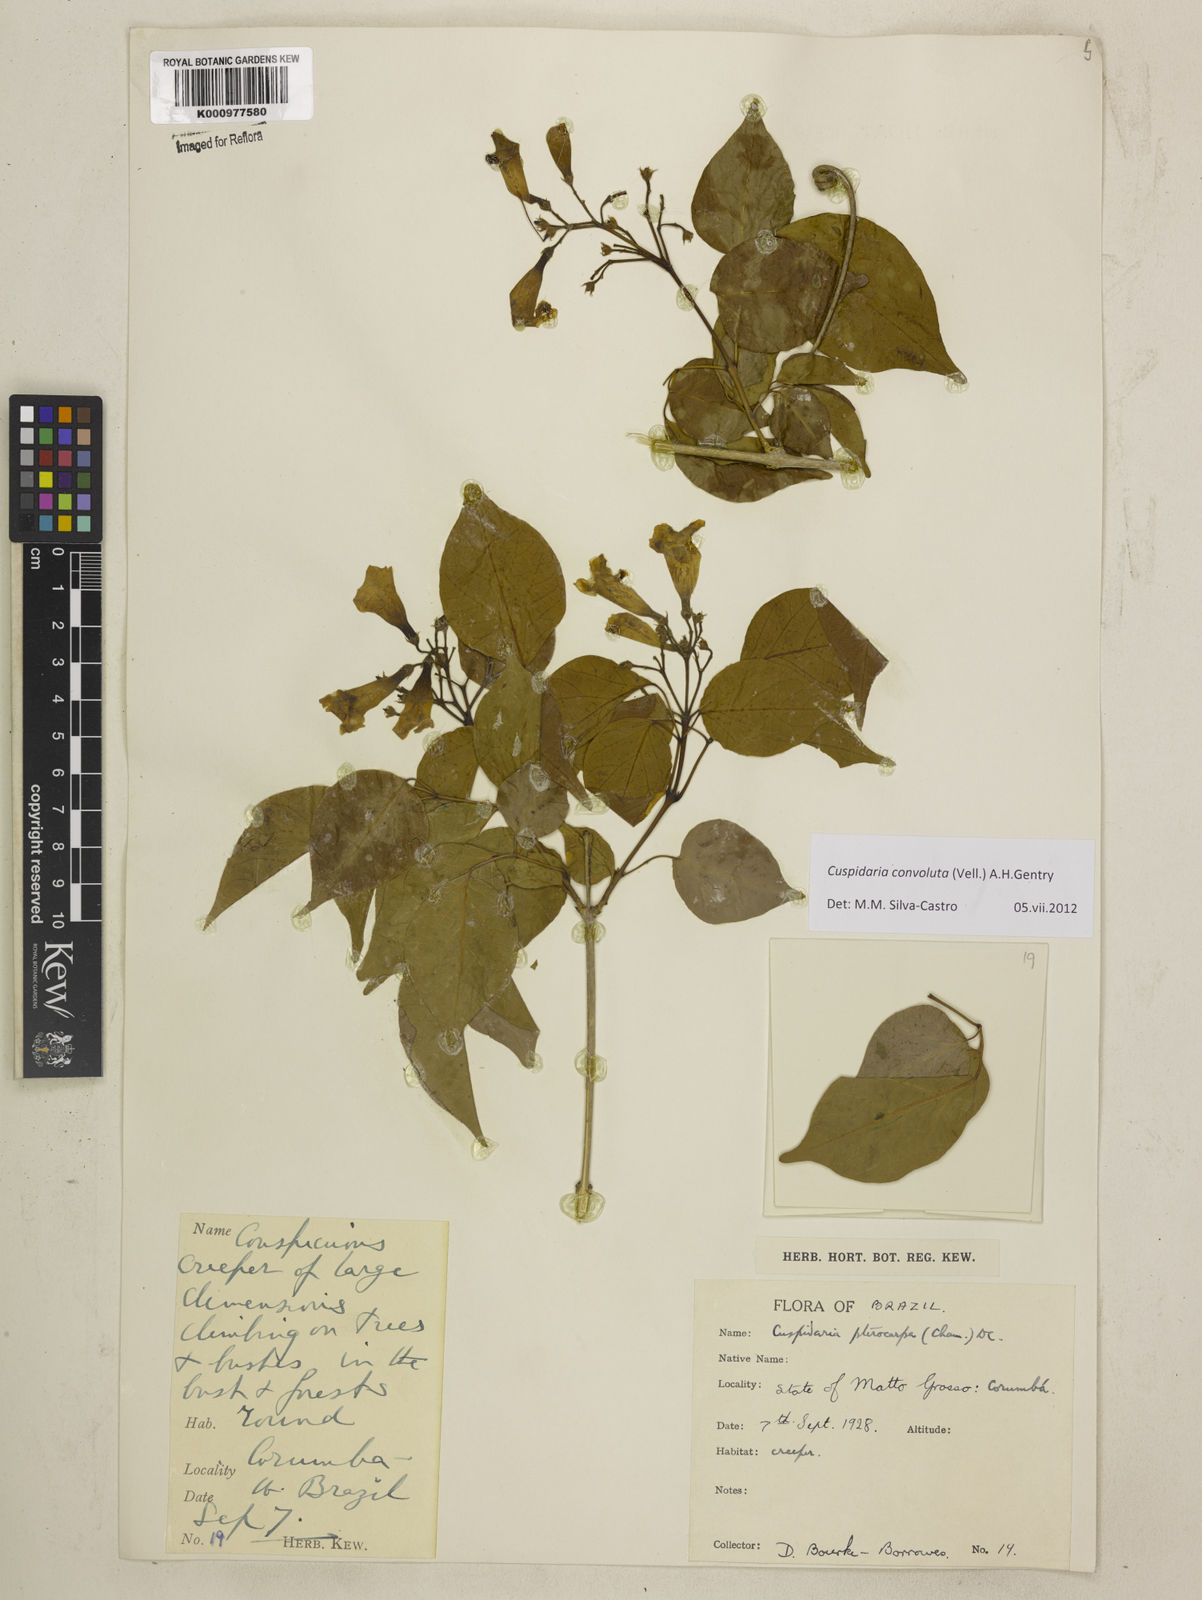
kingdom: Plantae
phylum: Tracheophyta
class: Magnoliopsida
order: Lamiales
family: Bignoniaceae
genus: Cuspidaria
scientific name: Cuspidaria convoluta
